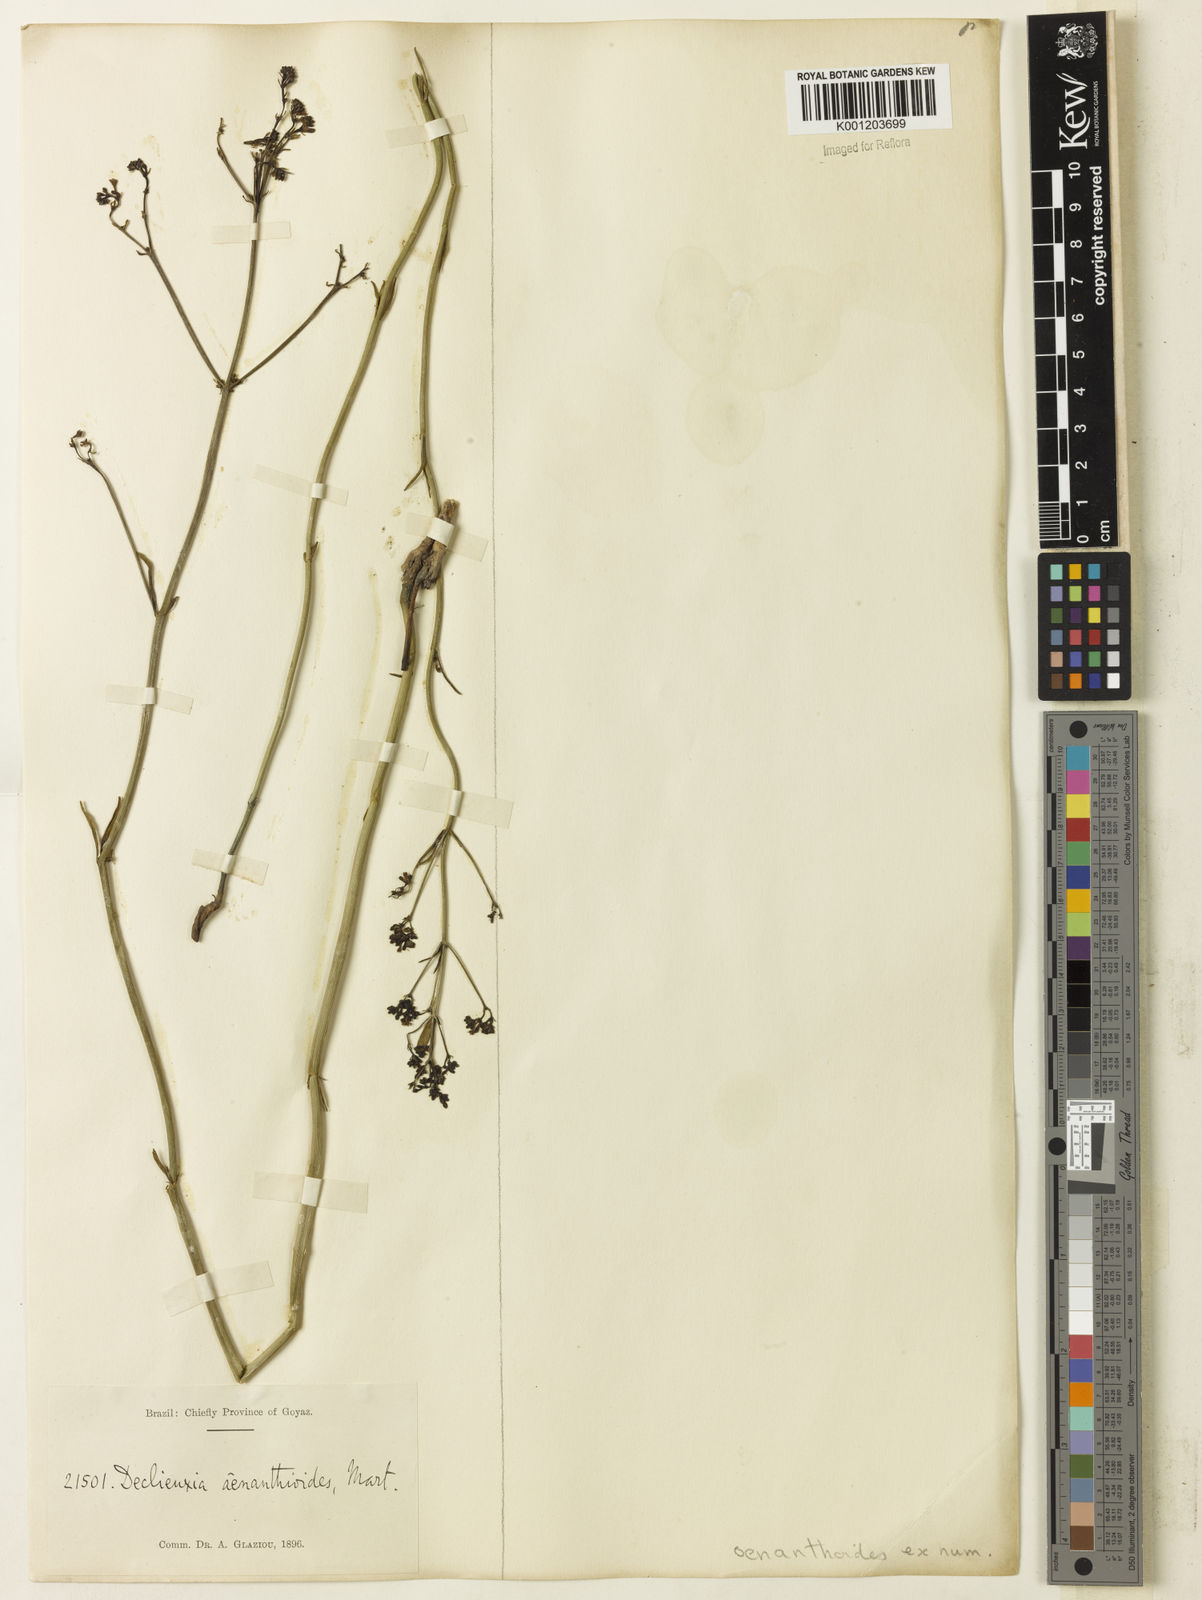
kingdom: Plantae
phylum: Tracheophyta
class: Magnoliopsida
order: Gentianales
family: Rubiaceae
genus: Declieuxia
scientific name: Declieuxia
